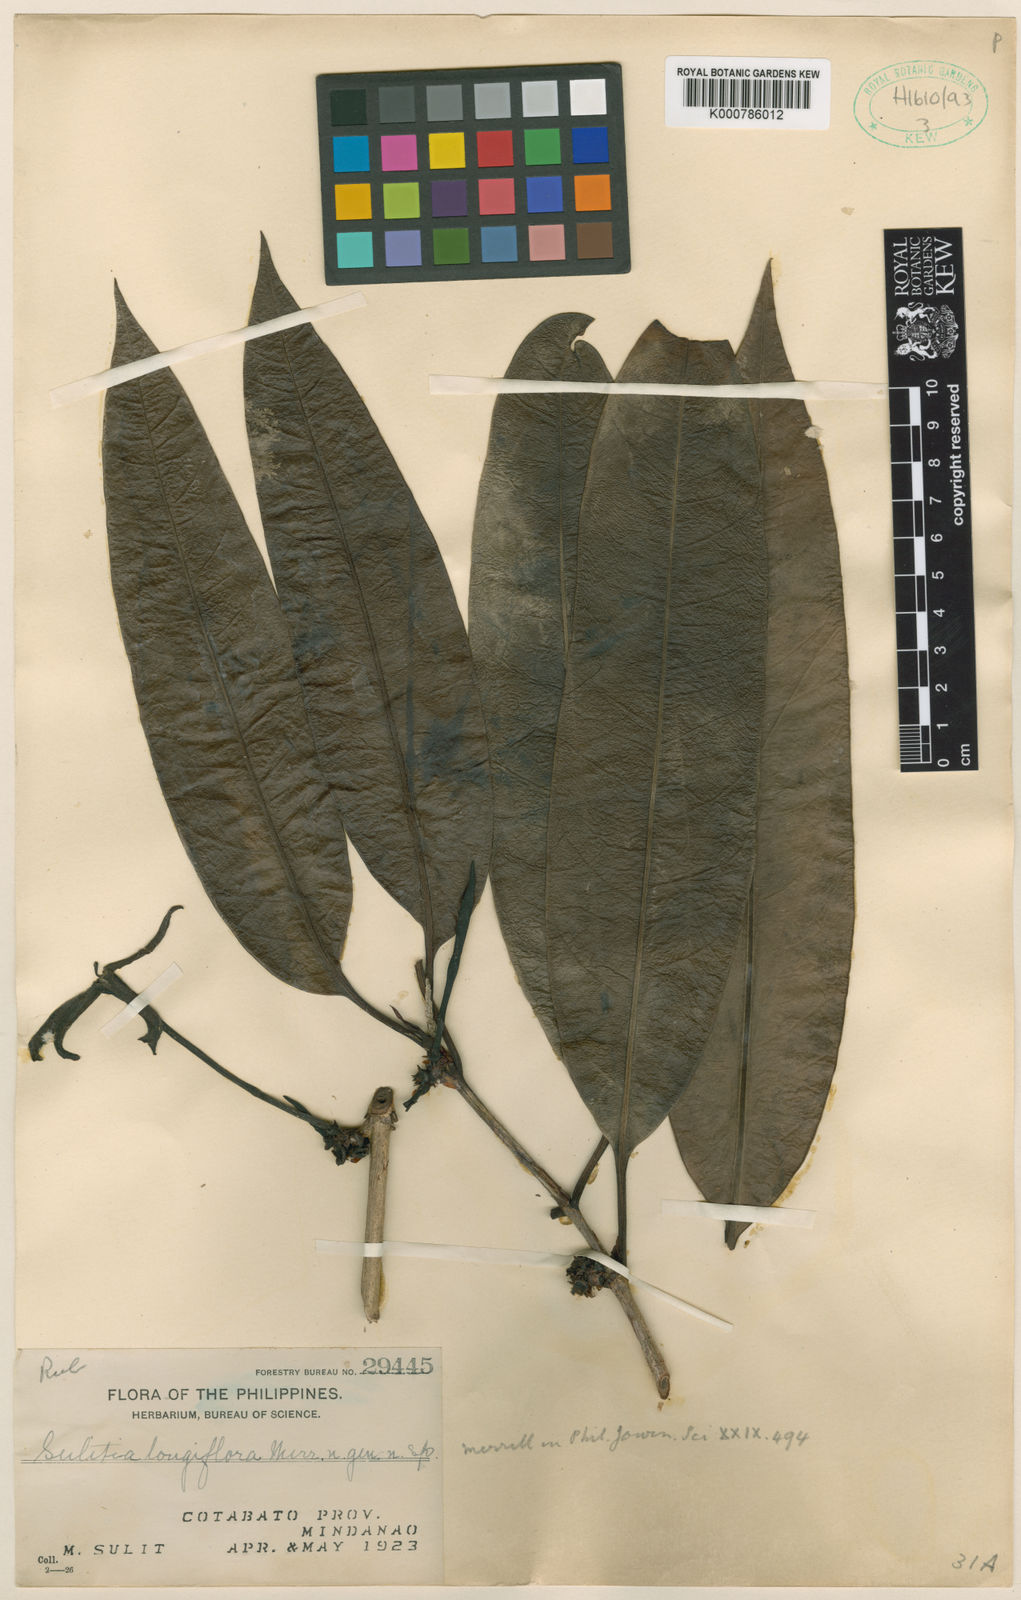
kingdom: Plantae
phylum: Tracheophyta
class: Magnoliopsida
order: Gentianales
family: Rubiaceae
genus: Atractocarpus
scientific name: Atractocarpus obscurinervius
